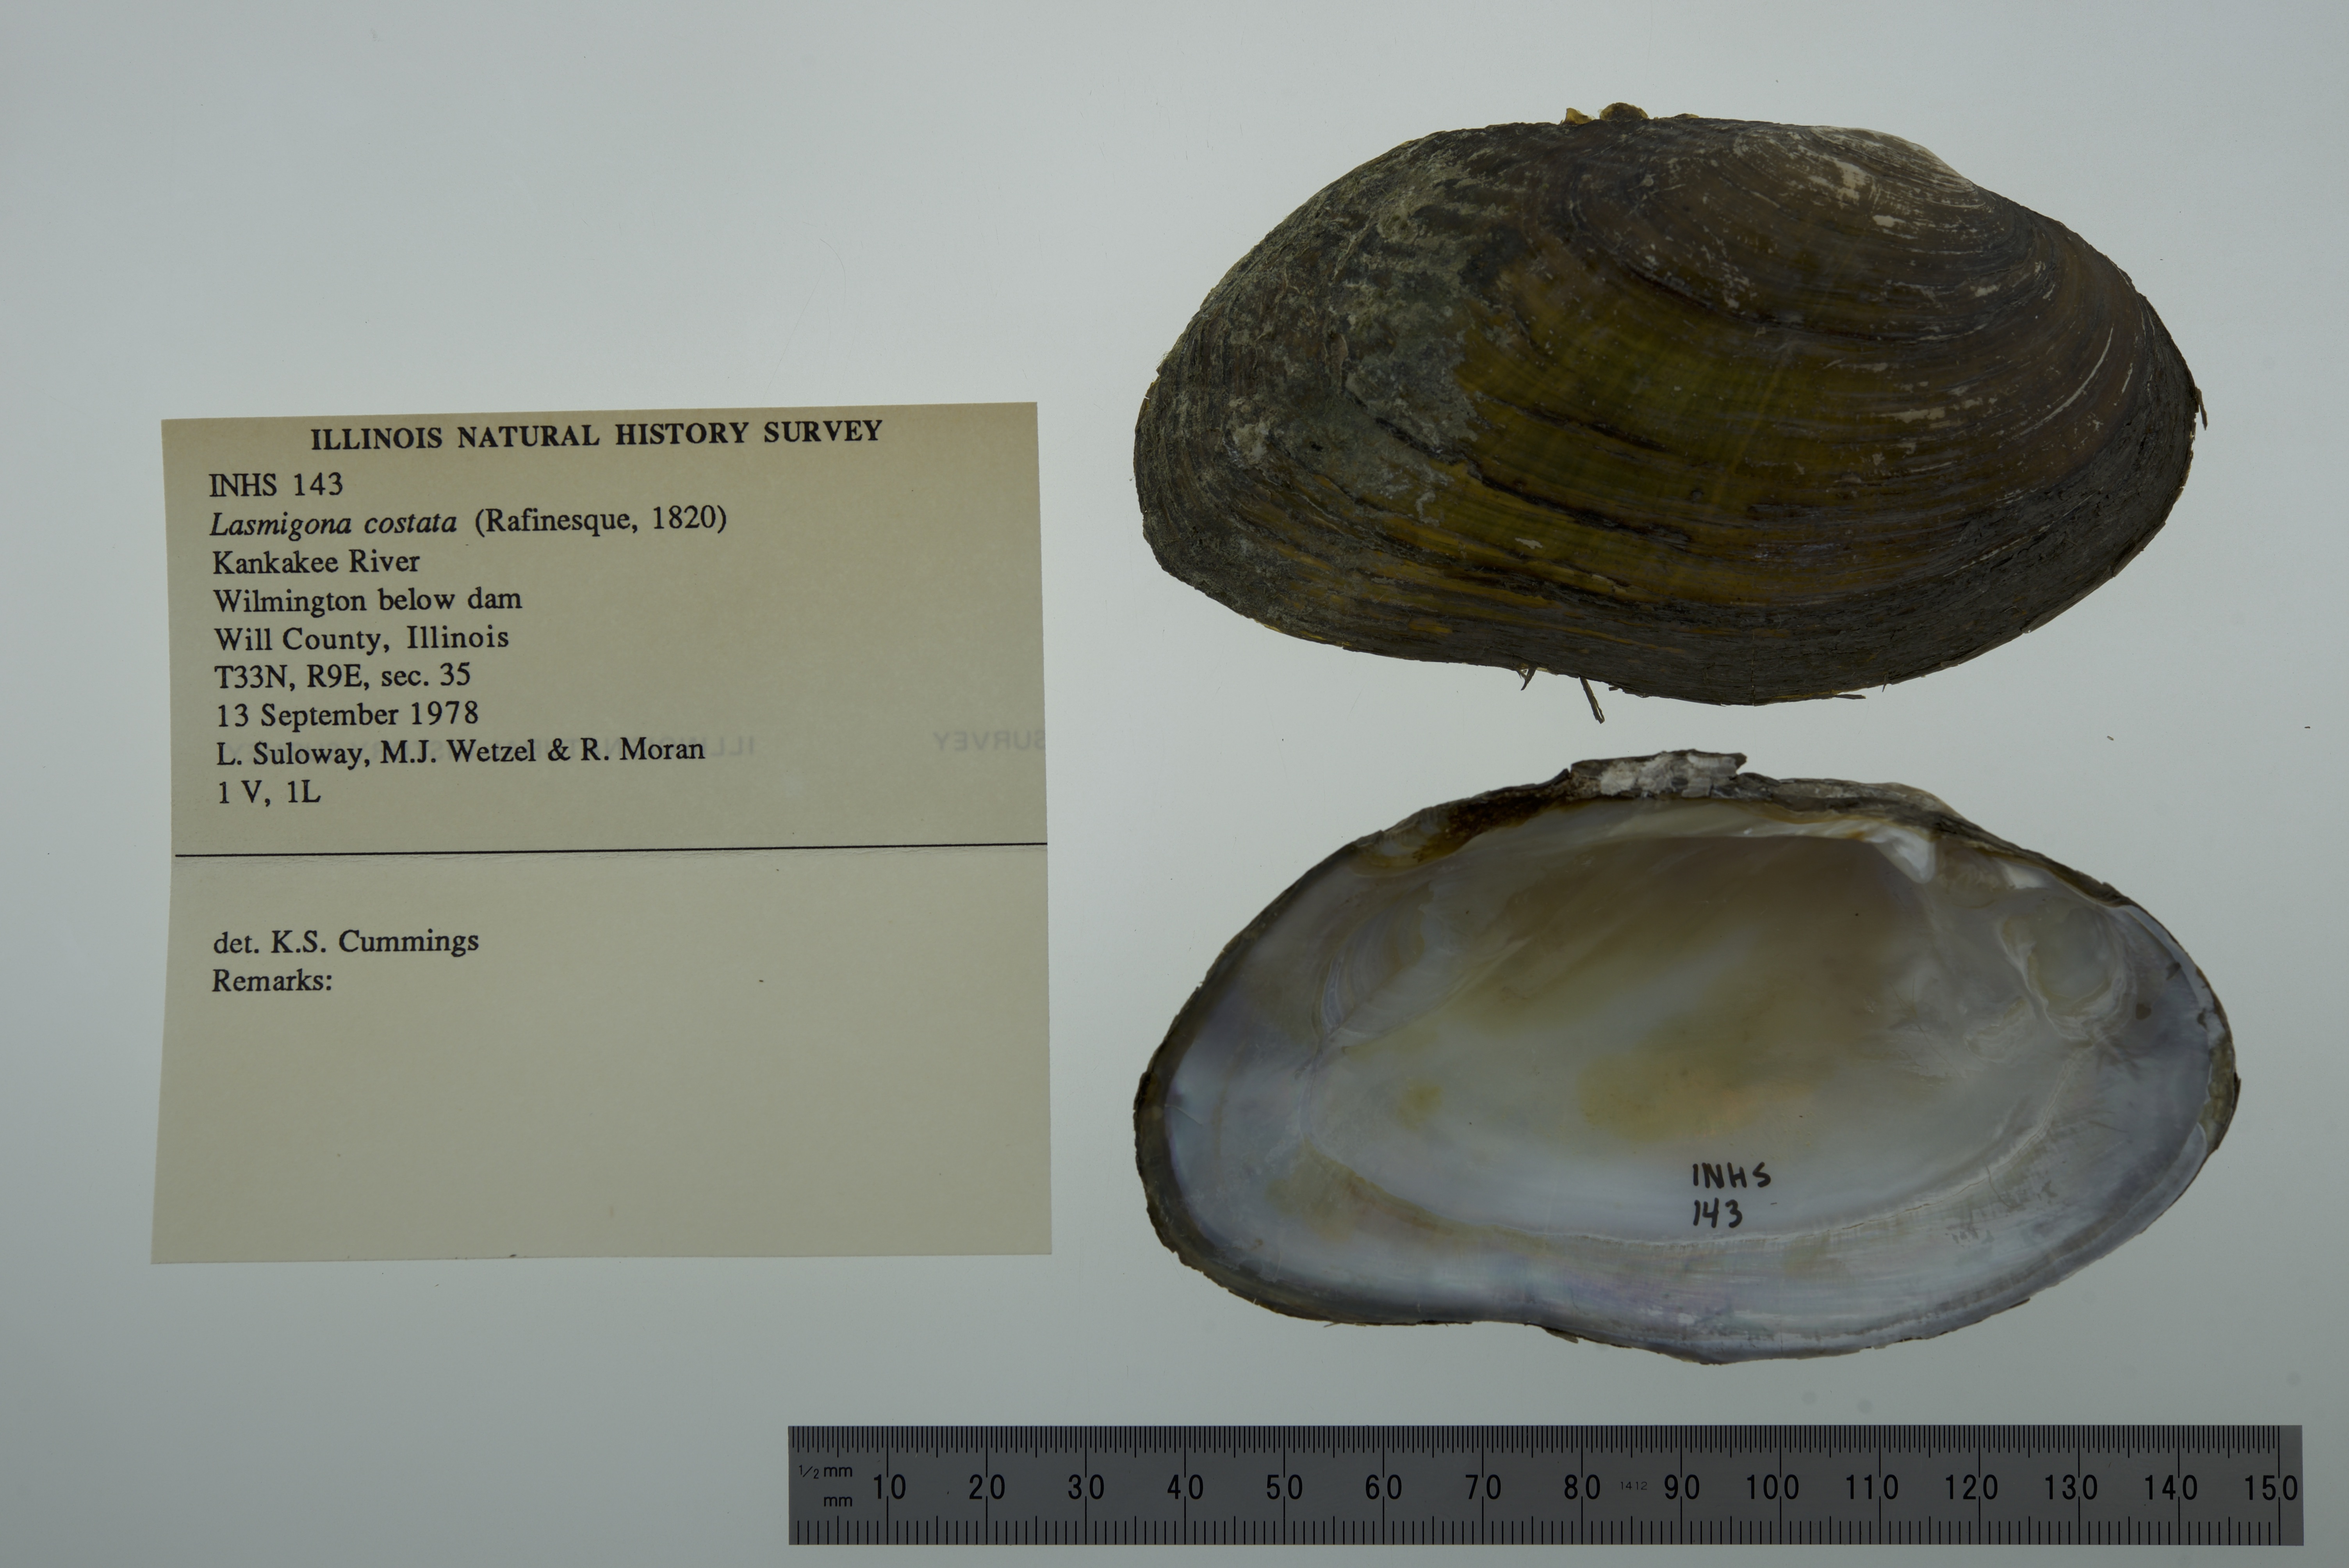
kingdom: Animalia
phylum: Mollusca
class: Bivalvia
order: Unionida
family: Unionidae
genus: Lasmigona
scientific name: Lasmigona costata
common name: Flutedshell
